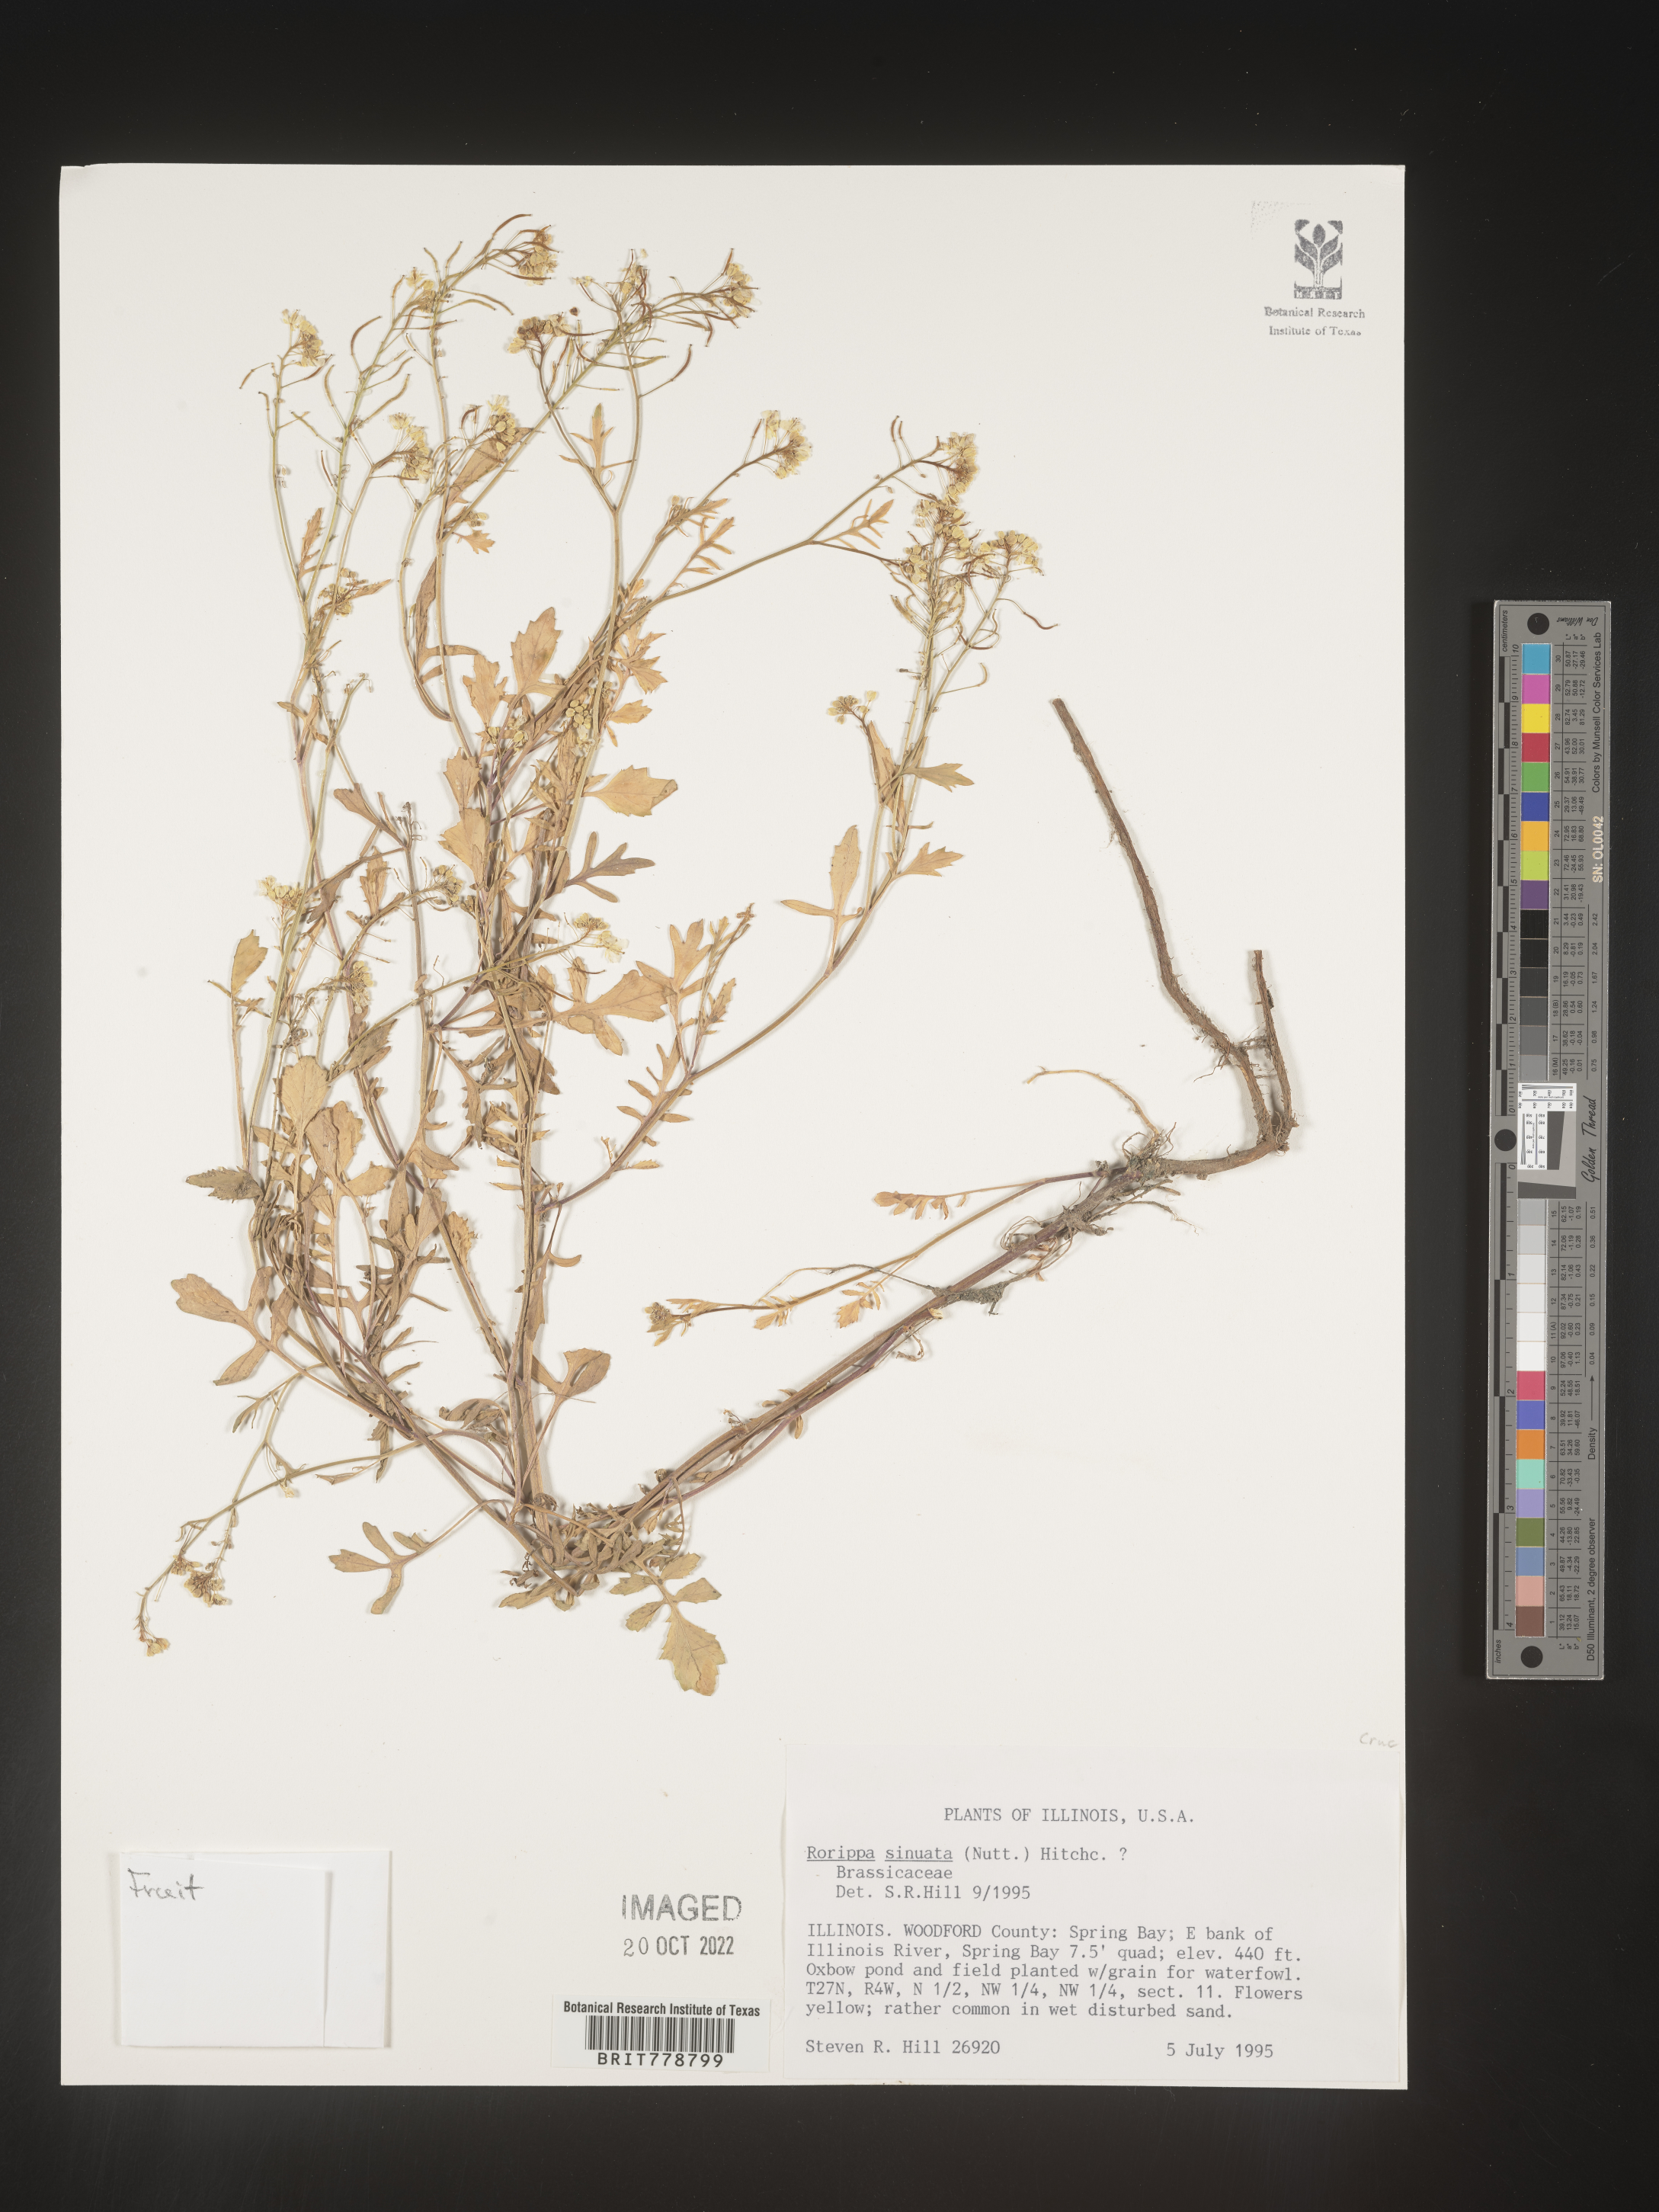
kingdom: Plantae
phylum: Tracheophyta
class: Magnoliopsida
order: Brassicales
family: Brassicaceae
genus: Rorippa
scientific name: Rorippa sinuata
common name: Spread yellow cress
